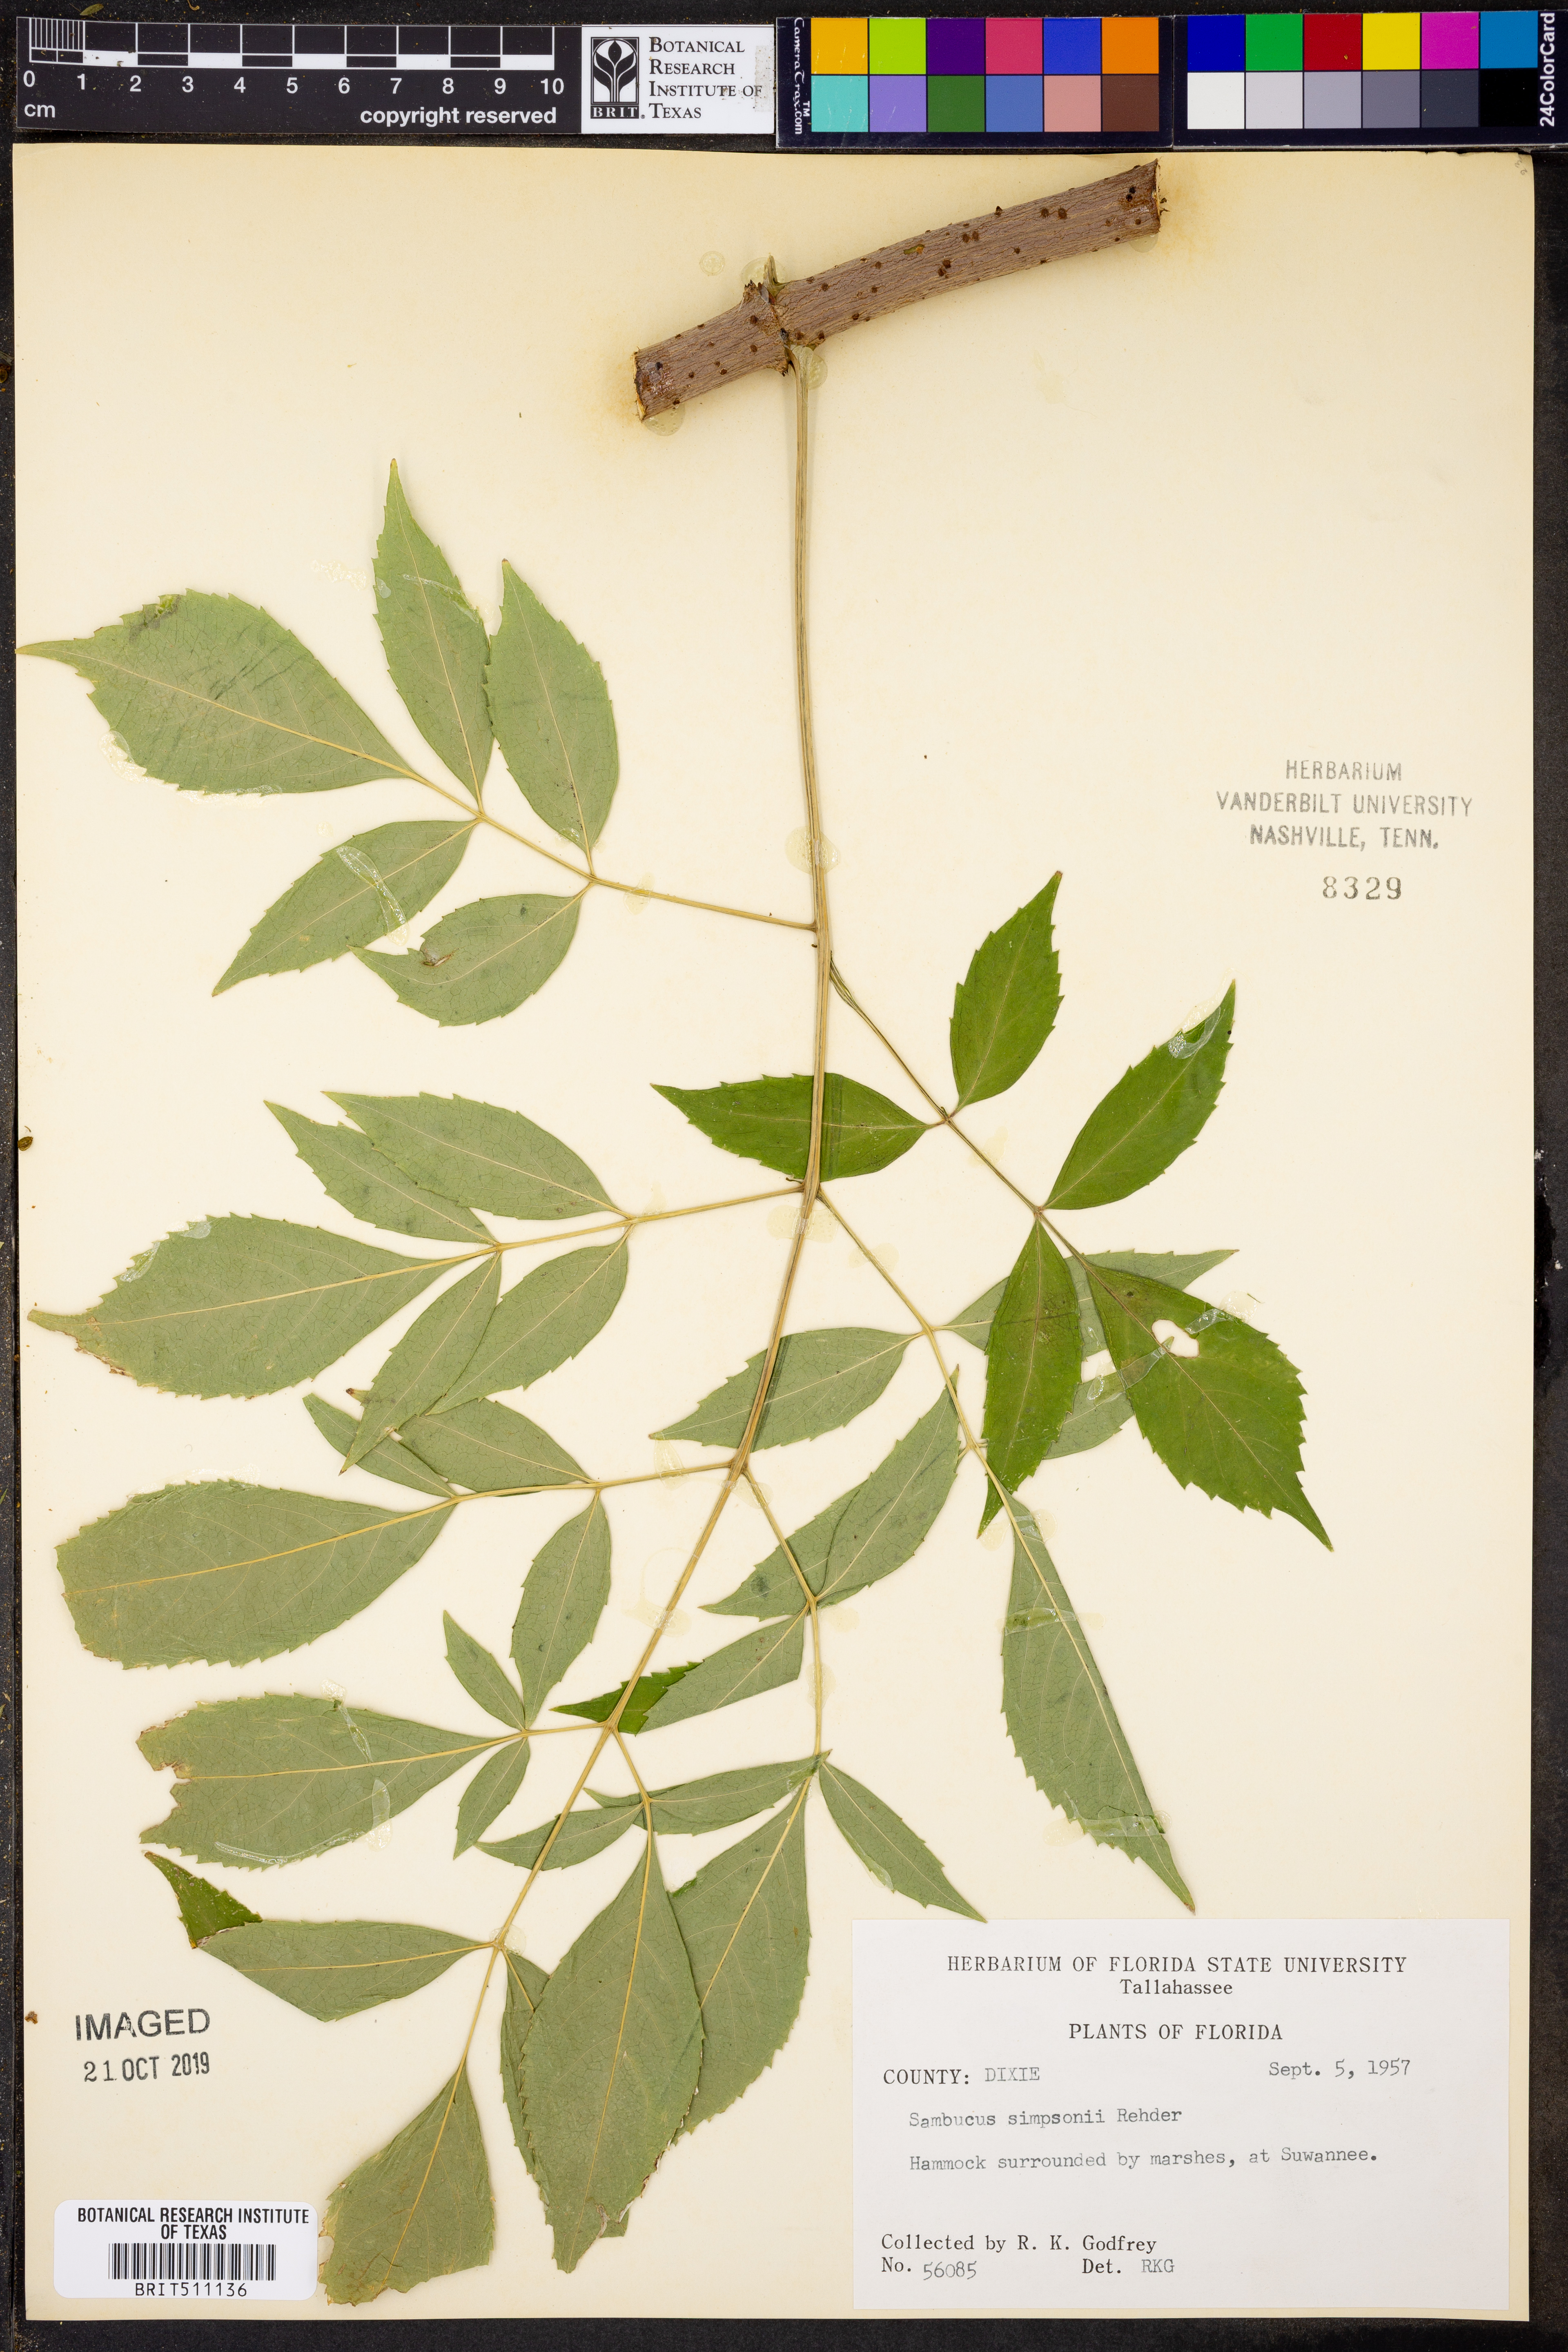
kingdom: Plantae
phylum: Tracheophyta
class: Magnoliopsida
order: Dipsacales
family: Viburnaceae
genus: Sambucus
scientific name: Sambucus canadensis
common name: American elder
